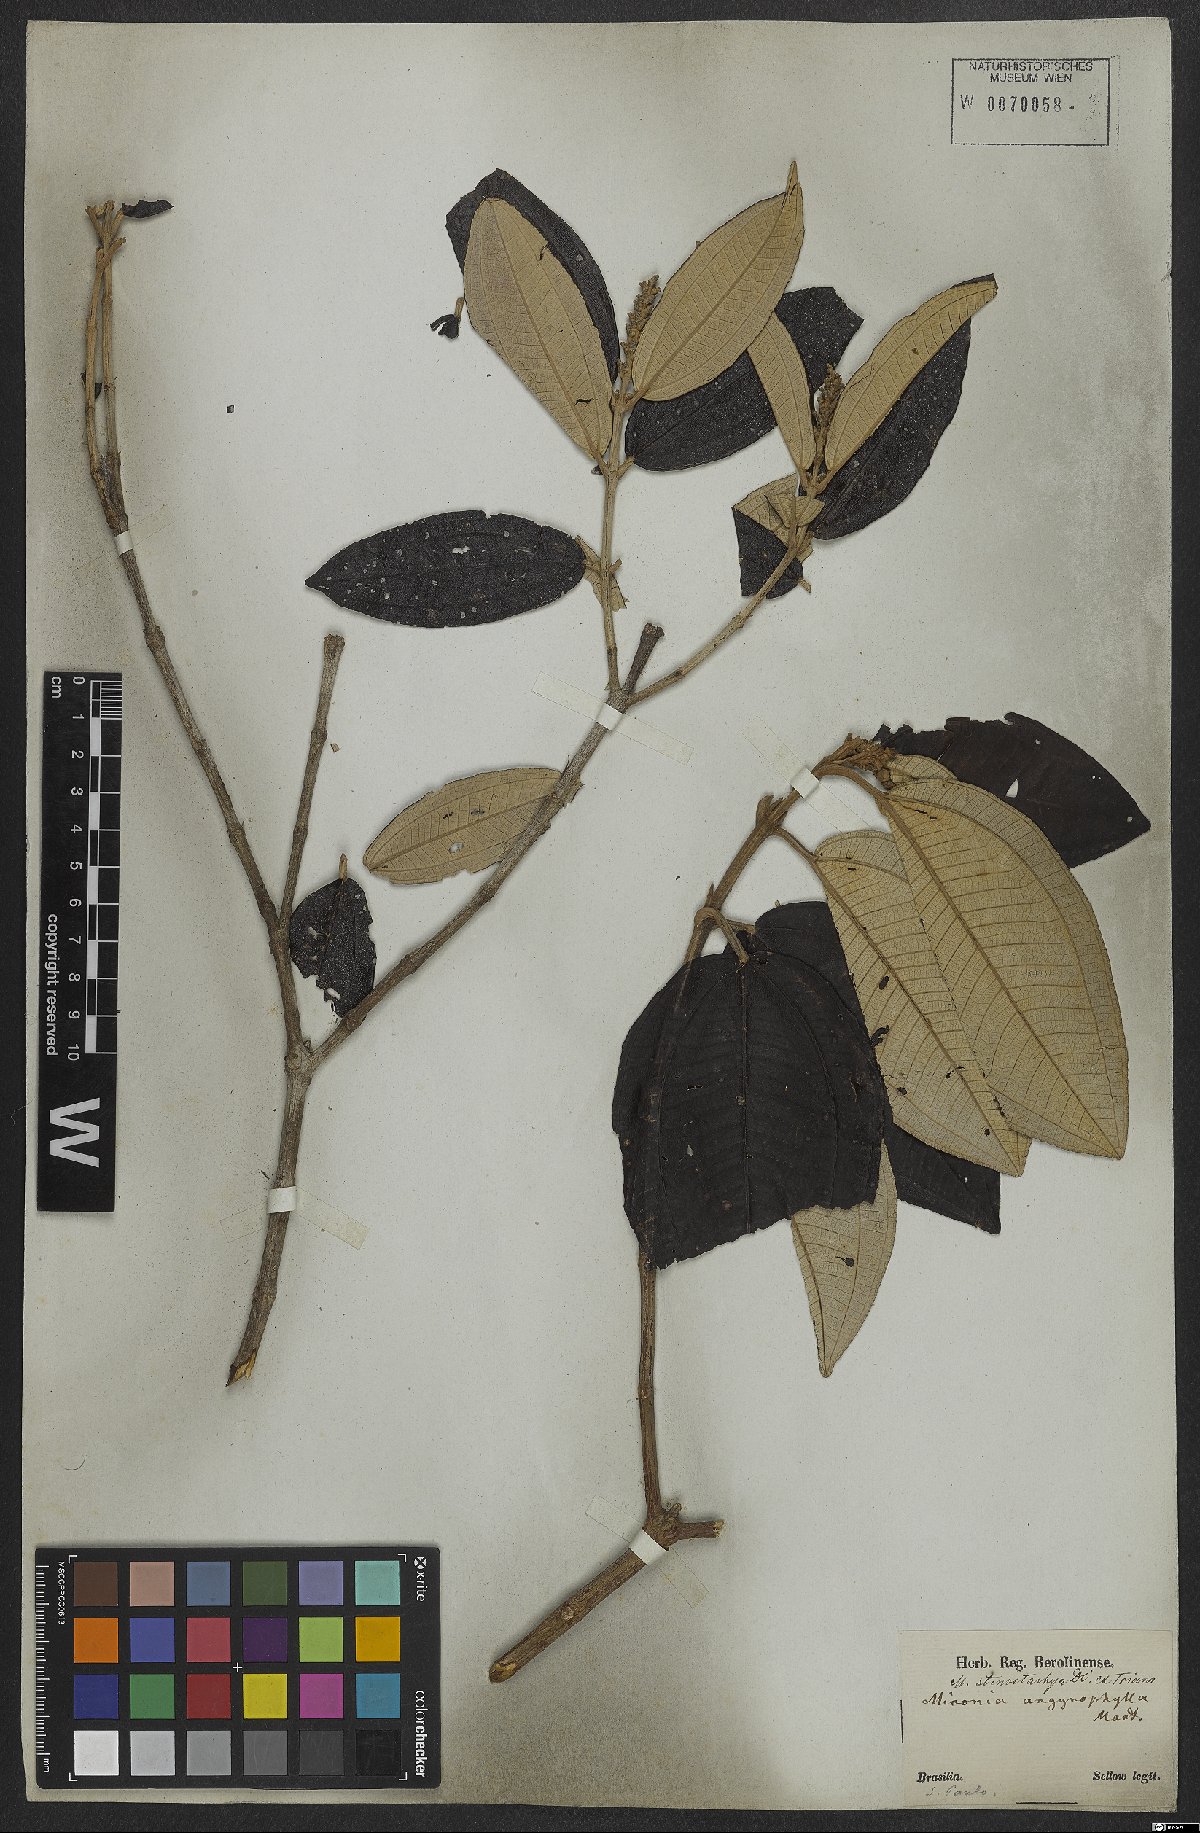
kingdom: Plantae
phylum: Tracheophyta
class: Magnoliopsida
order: Myrtales
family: Melastomataceae
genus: Miconia
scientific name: Miconia stenostachya
